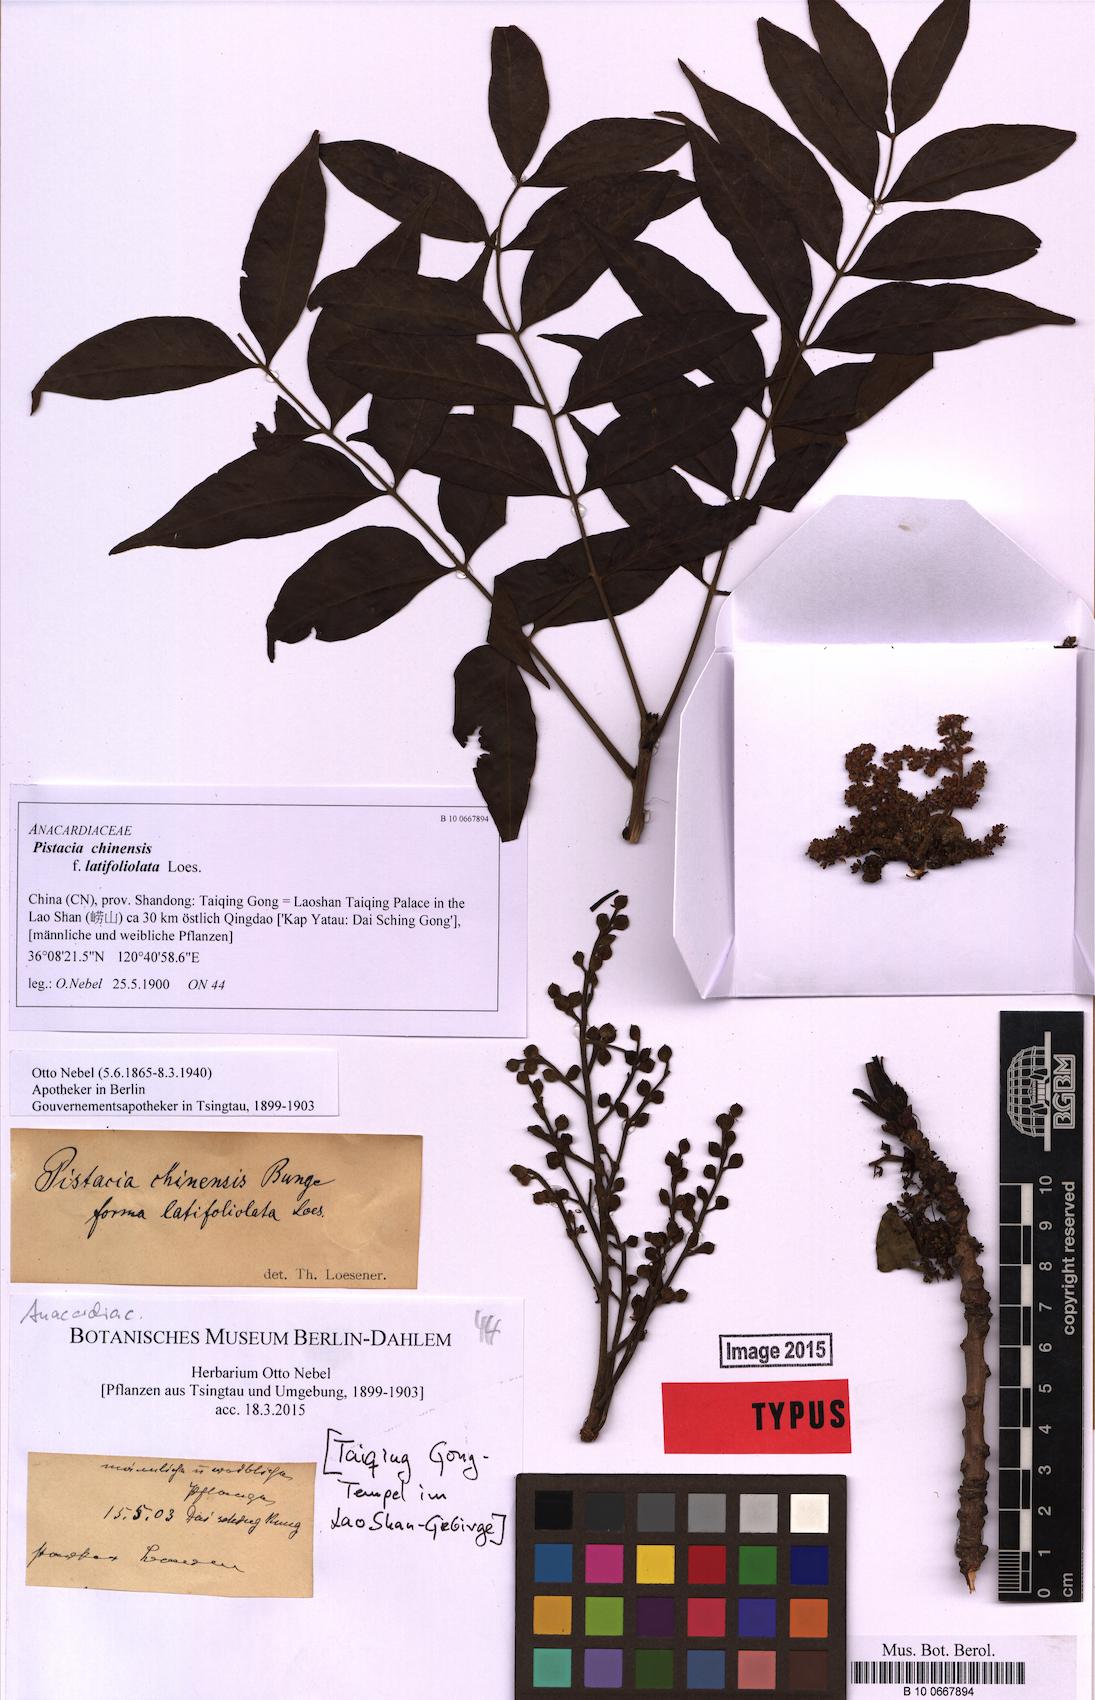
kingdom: Plantae
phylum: Tracheophyta
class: Magnoliopsida
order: Sapindales
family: Anacardiaceae
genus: Pistacia
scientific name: Pistacia chinensis
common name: Chinese pistache
